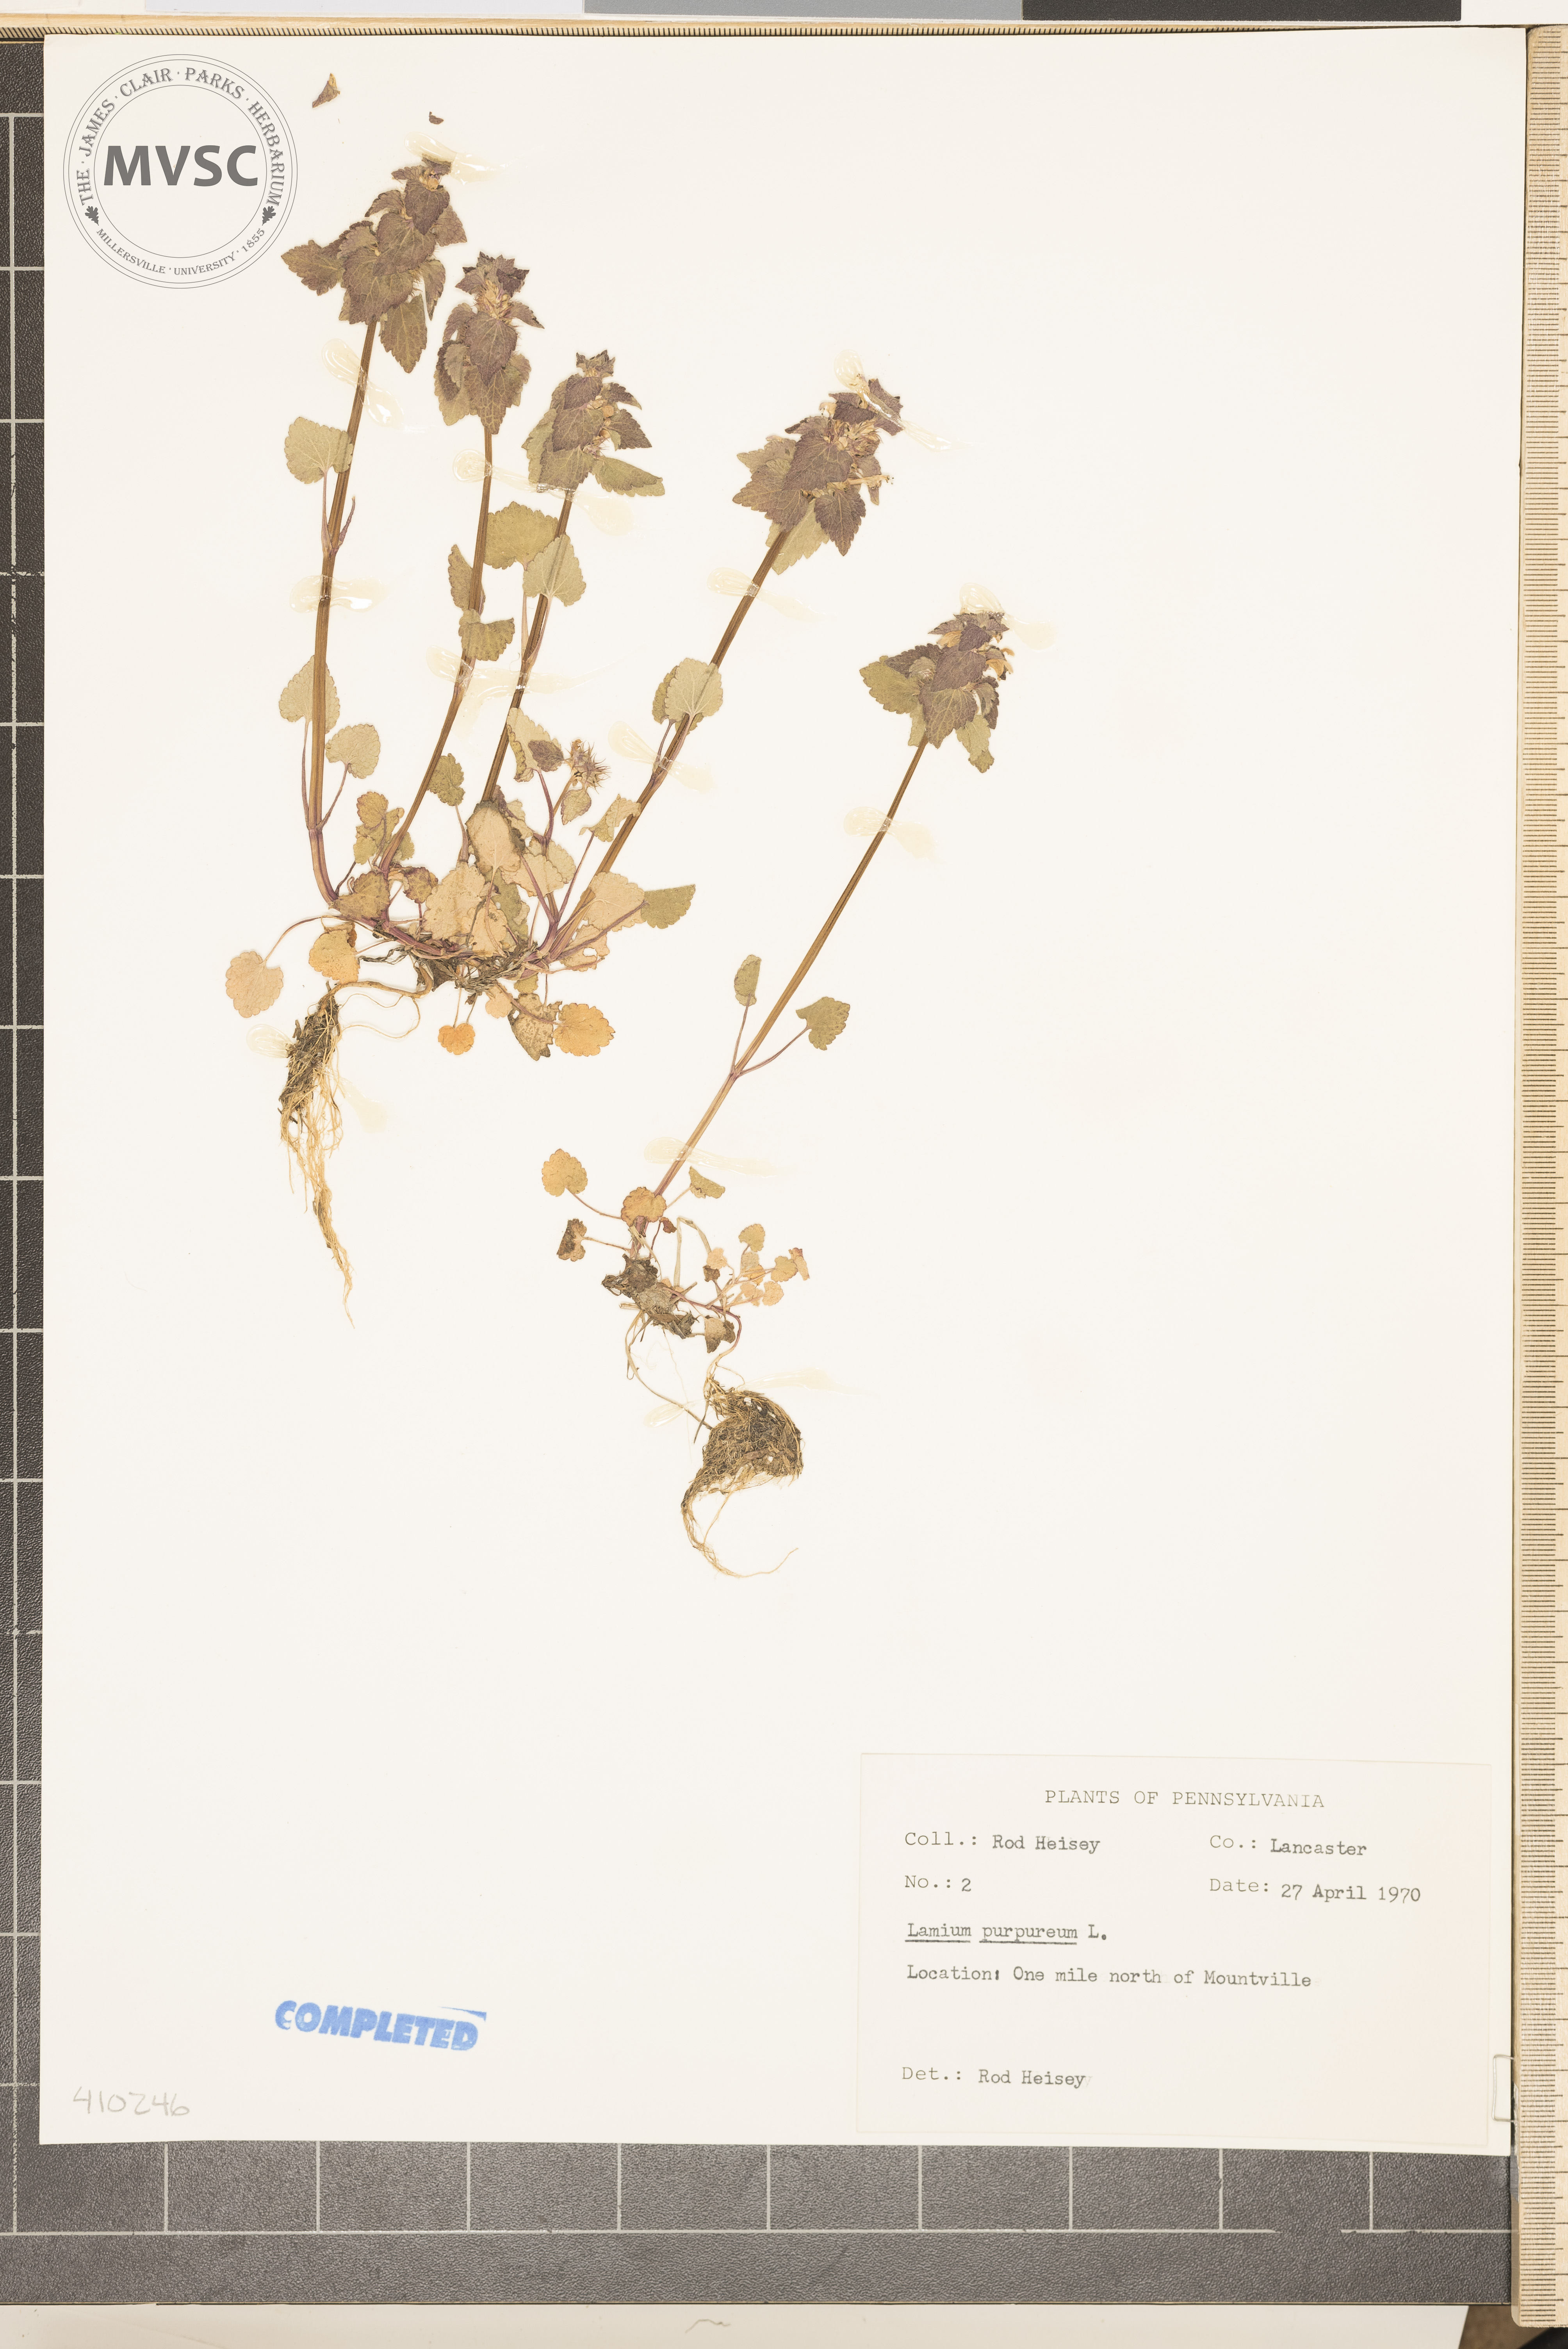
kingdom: Plantae
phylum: Tracheophyta
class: Magnoliopsida
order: Lamiales
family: Lamiaceae
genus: Lamium
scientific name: Lamium purpureum
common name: purple dead-nettle
